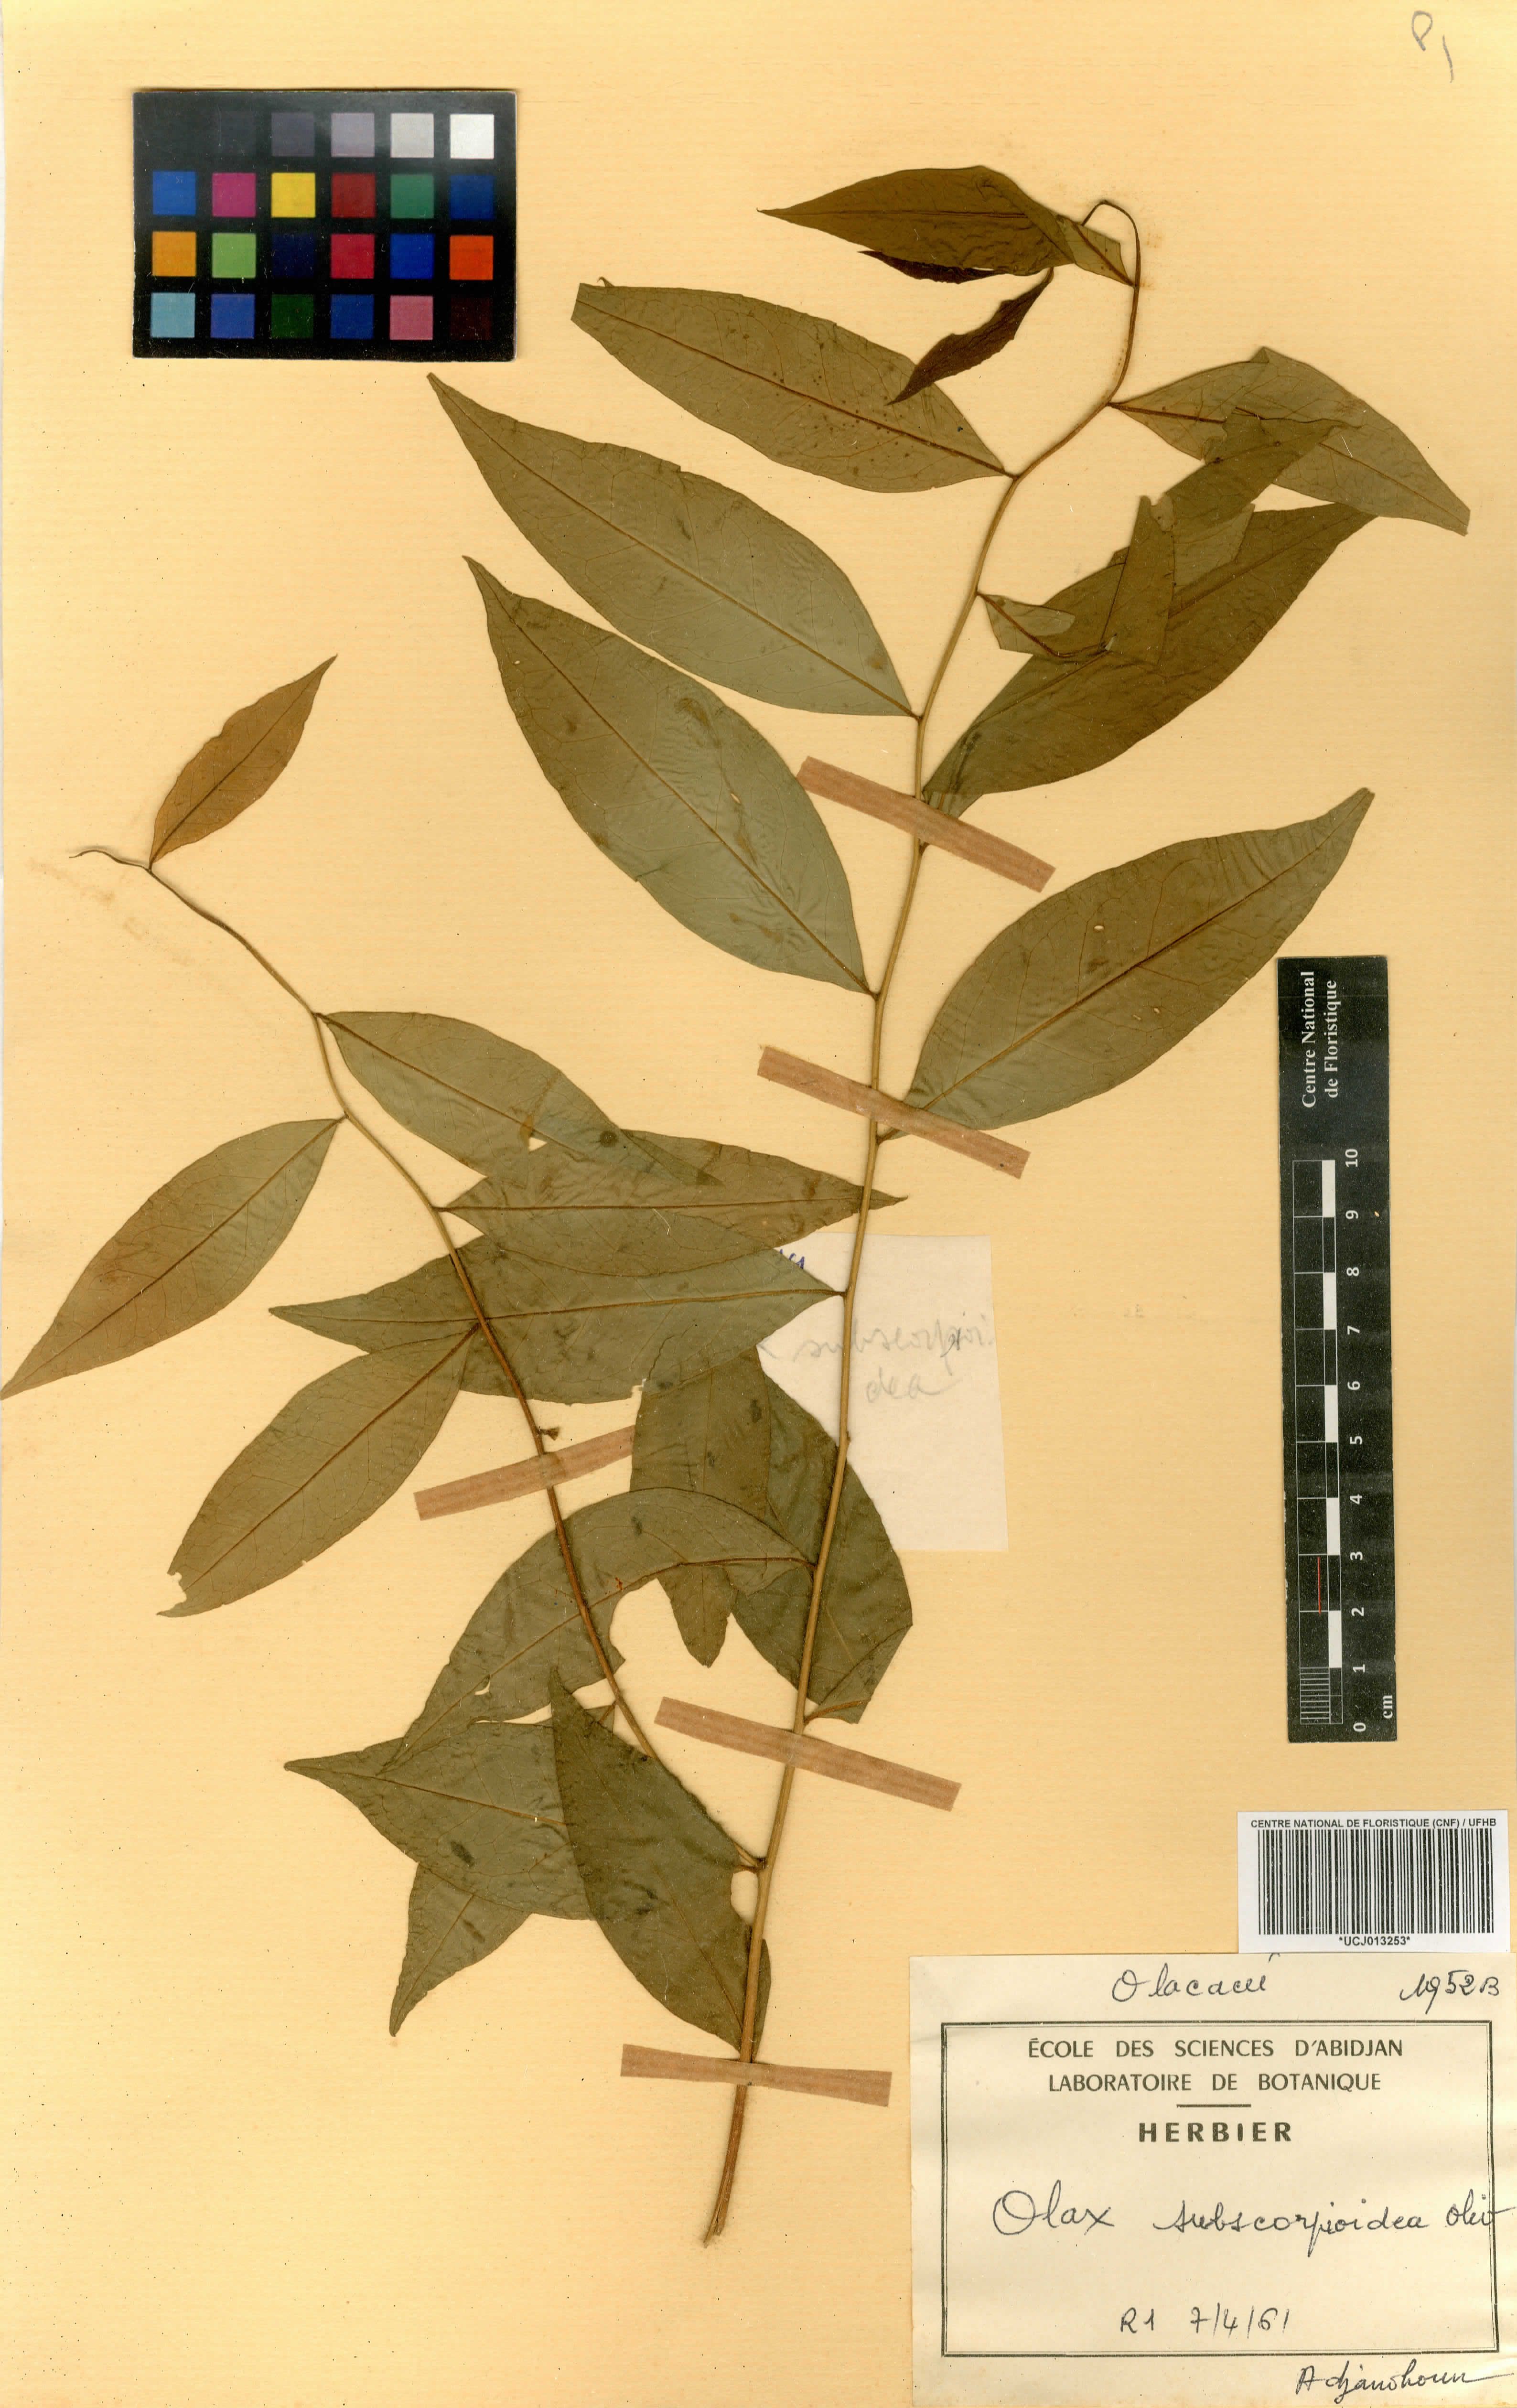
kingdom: Plantae
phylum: Tracheophyta
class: Magnoliopsida
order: Santalales
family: Olacaceae
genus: Olax
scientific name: Olax subscorpioides
